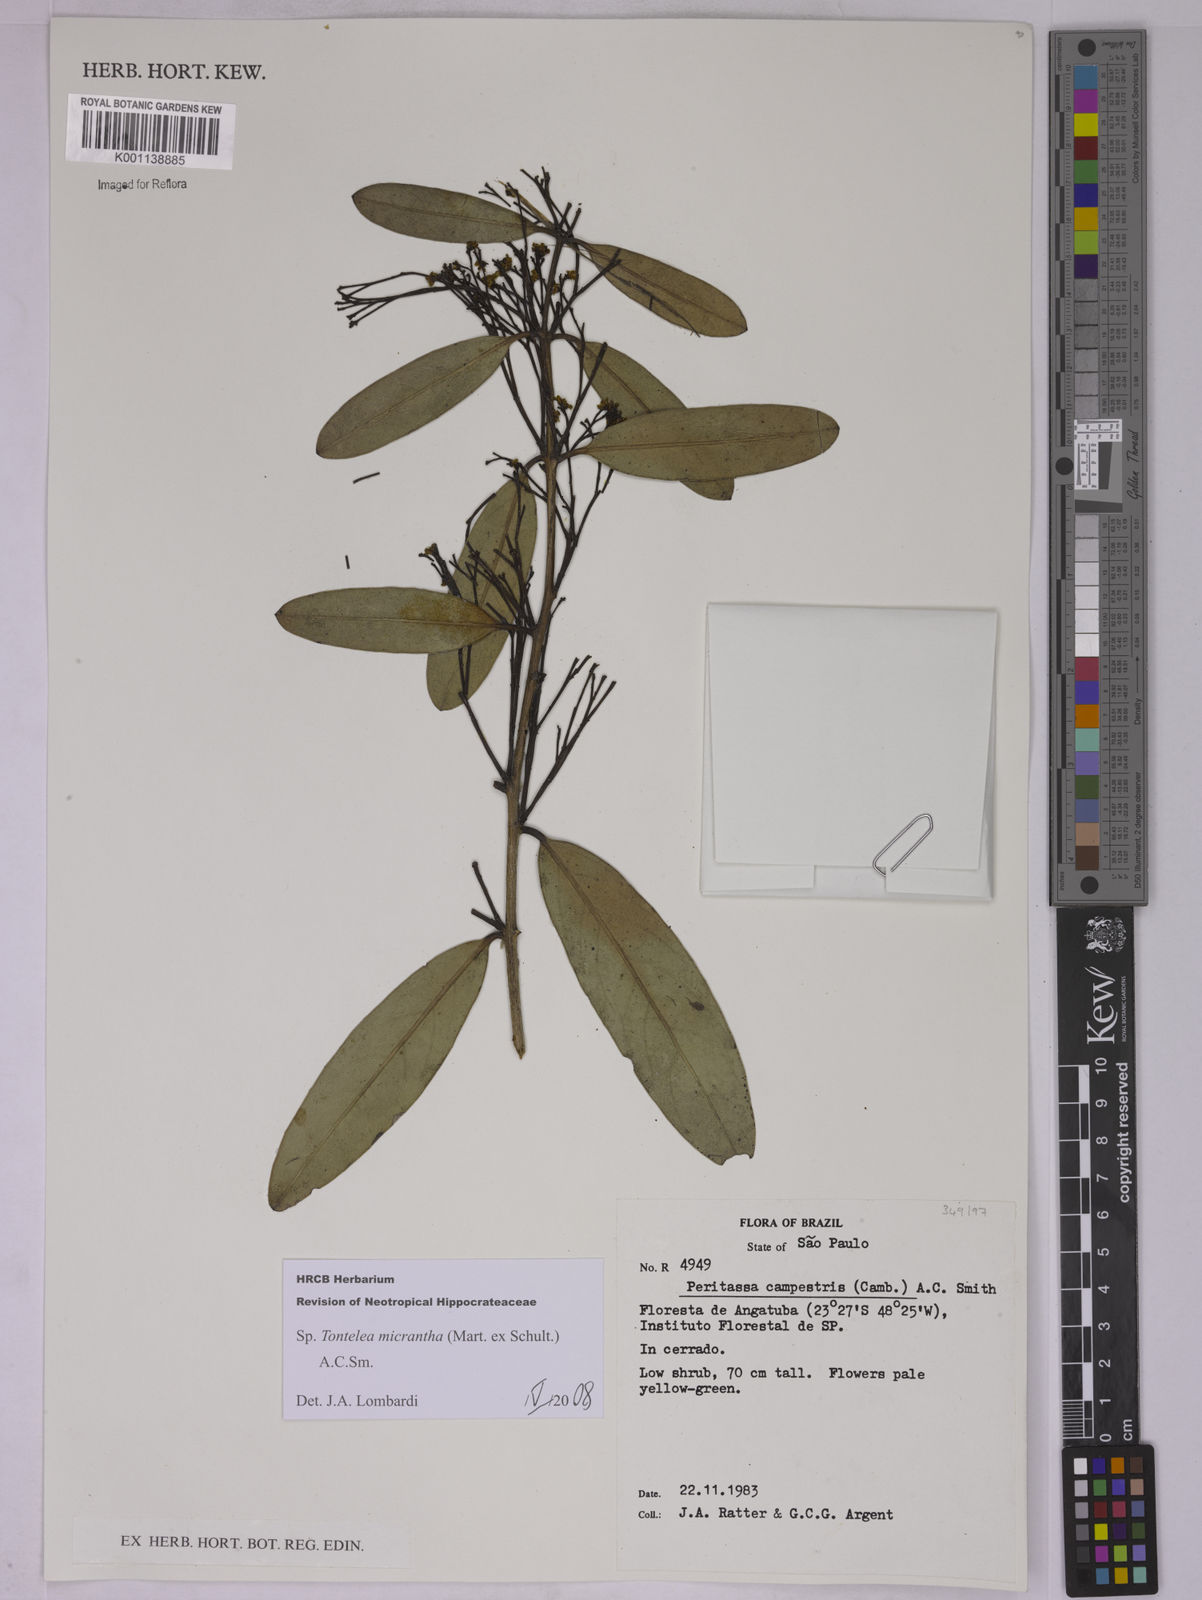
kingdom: Plantae
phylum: Tracheophyta
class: Magnoliopsida
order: Celastrales
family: Celastraceae
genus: Tontelea
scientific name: Tontelea micrantha
